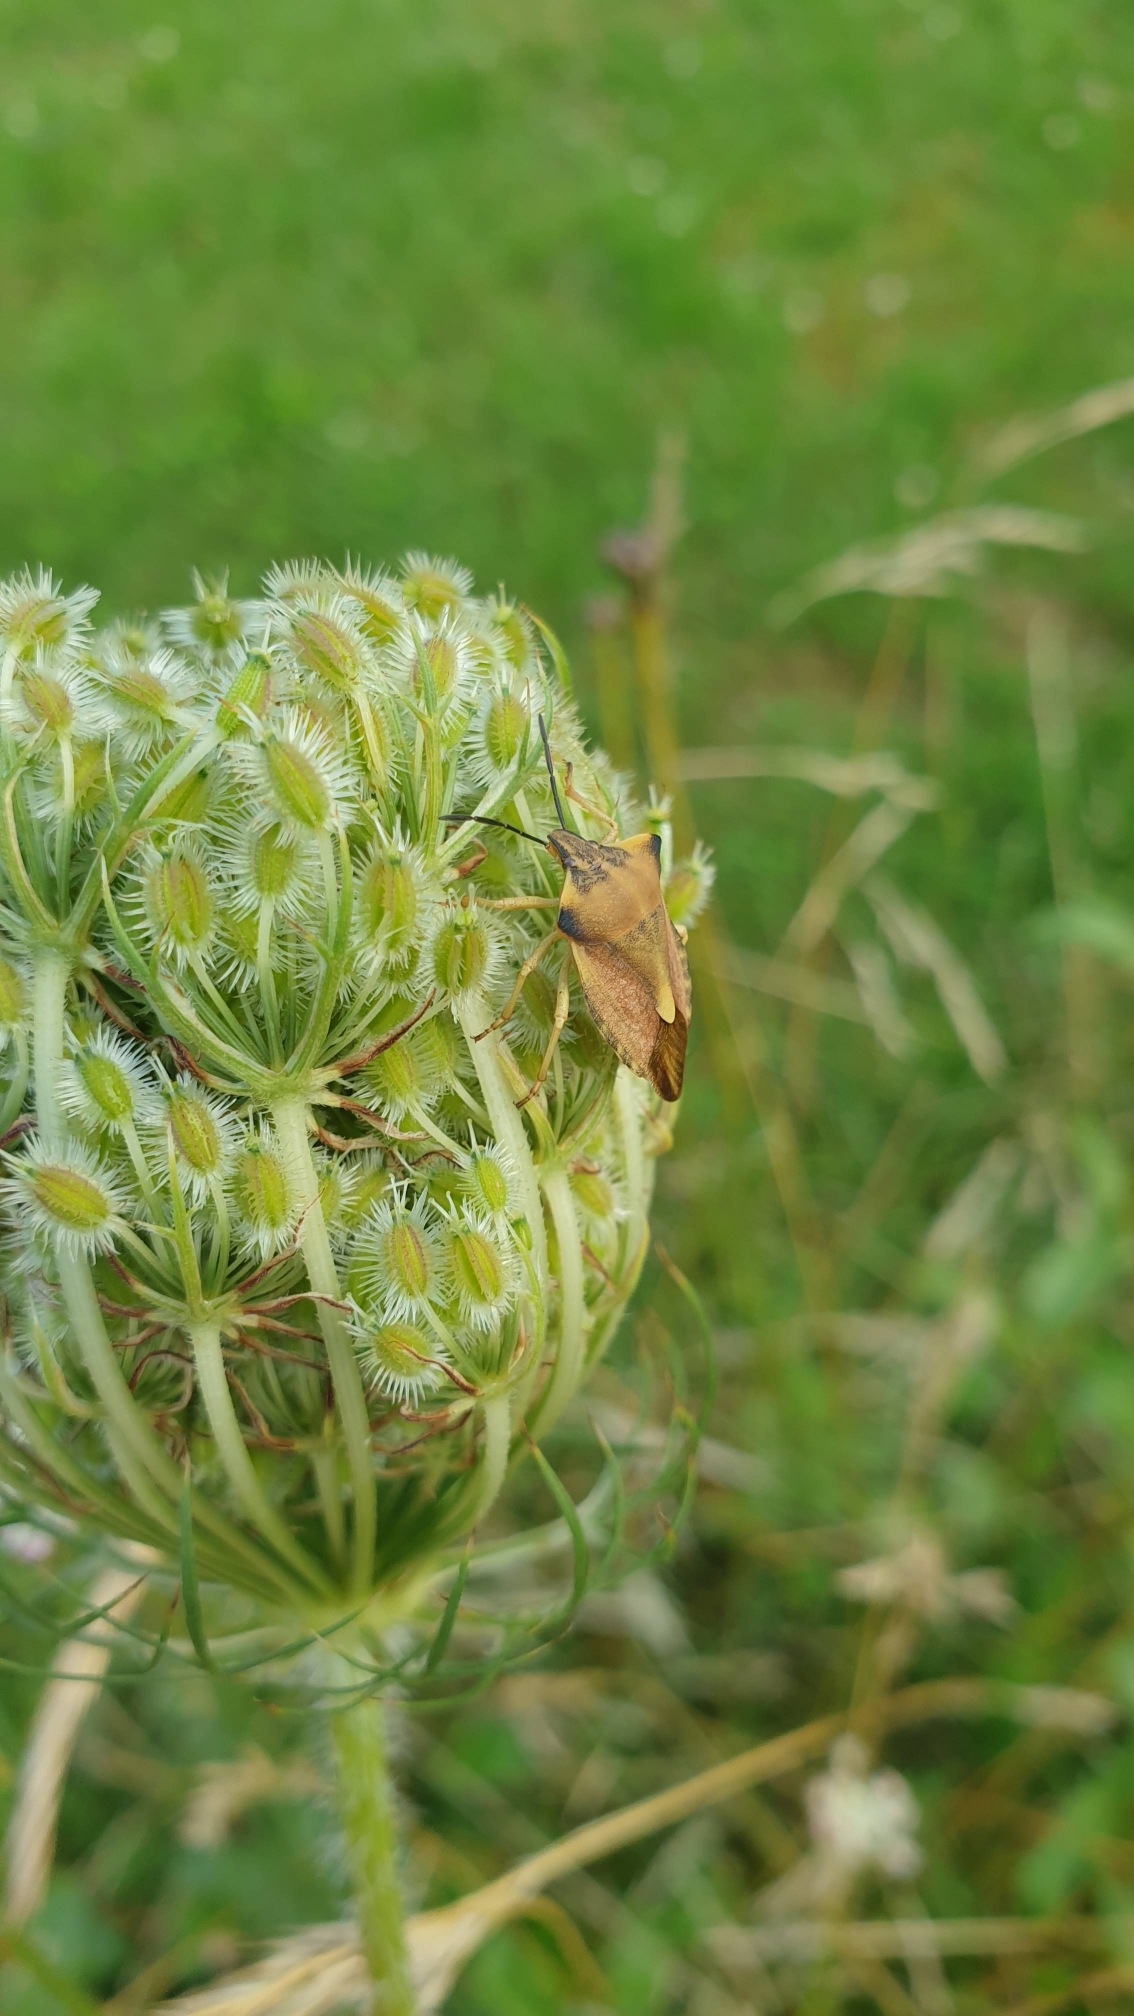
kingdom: Animalia
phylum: Arthropoda
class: Insecta
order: Hemiptera
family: Pentatomidae
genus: Carpocoris
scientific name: Carpocoris fuscispinus
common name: Glat bredtæge
